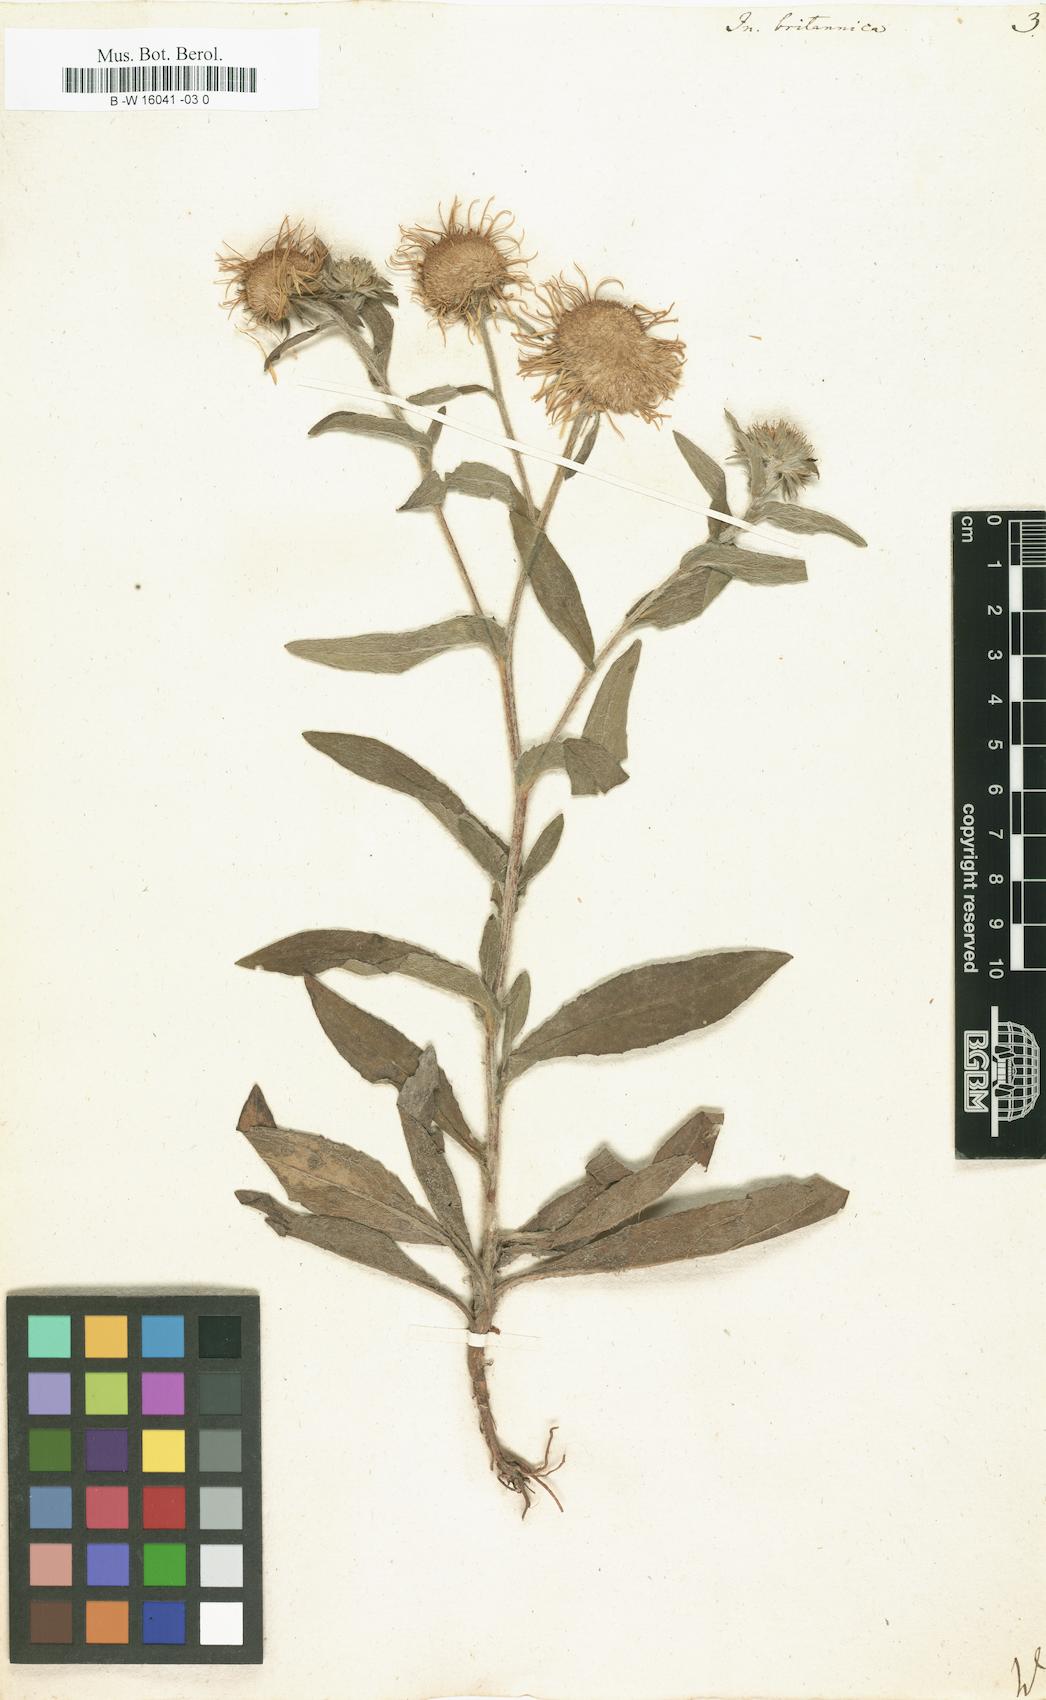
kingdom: Plantae
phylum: Tracheophyta
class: Magnoliopsida
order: Asterales
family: Asteraceae
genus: Inula
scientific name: Inula britannica
